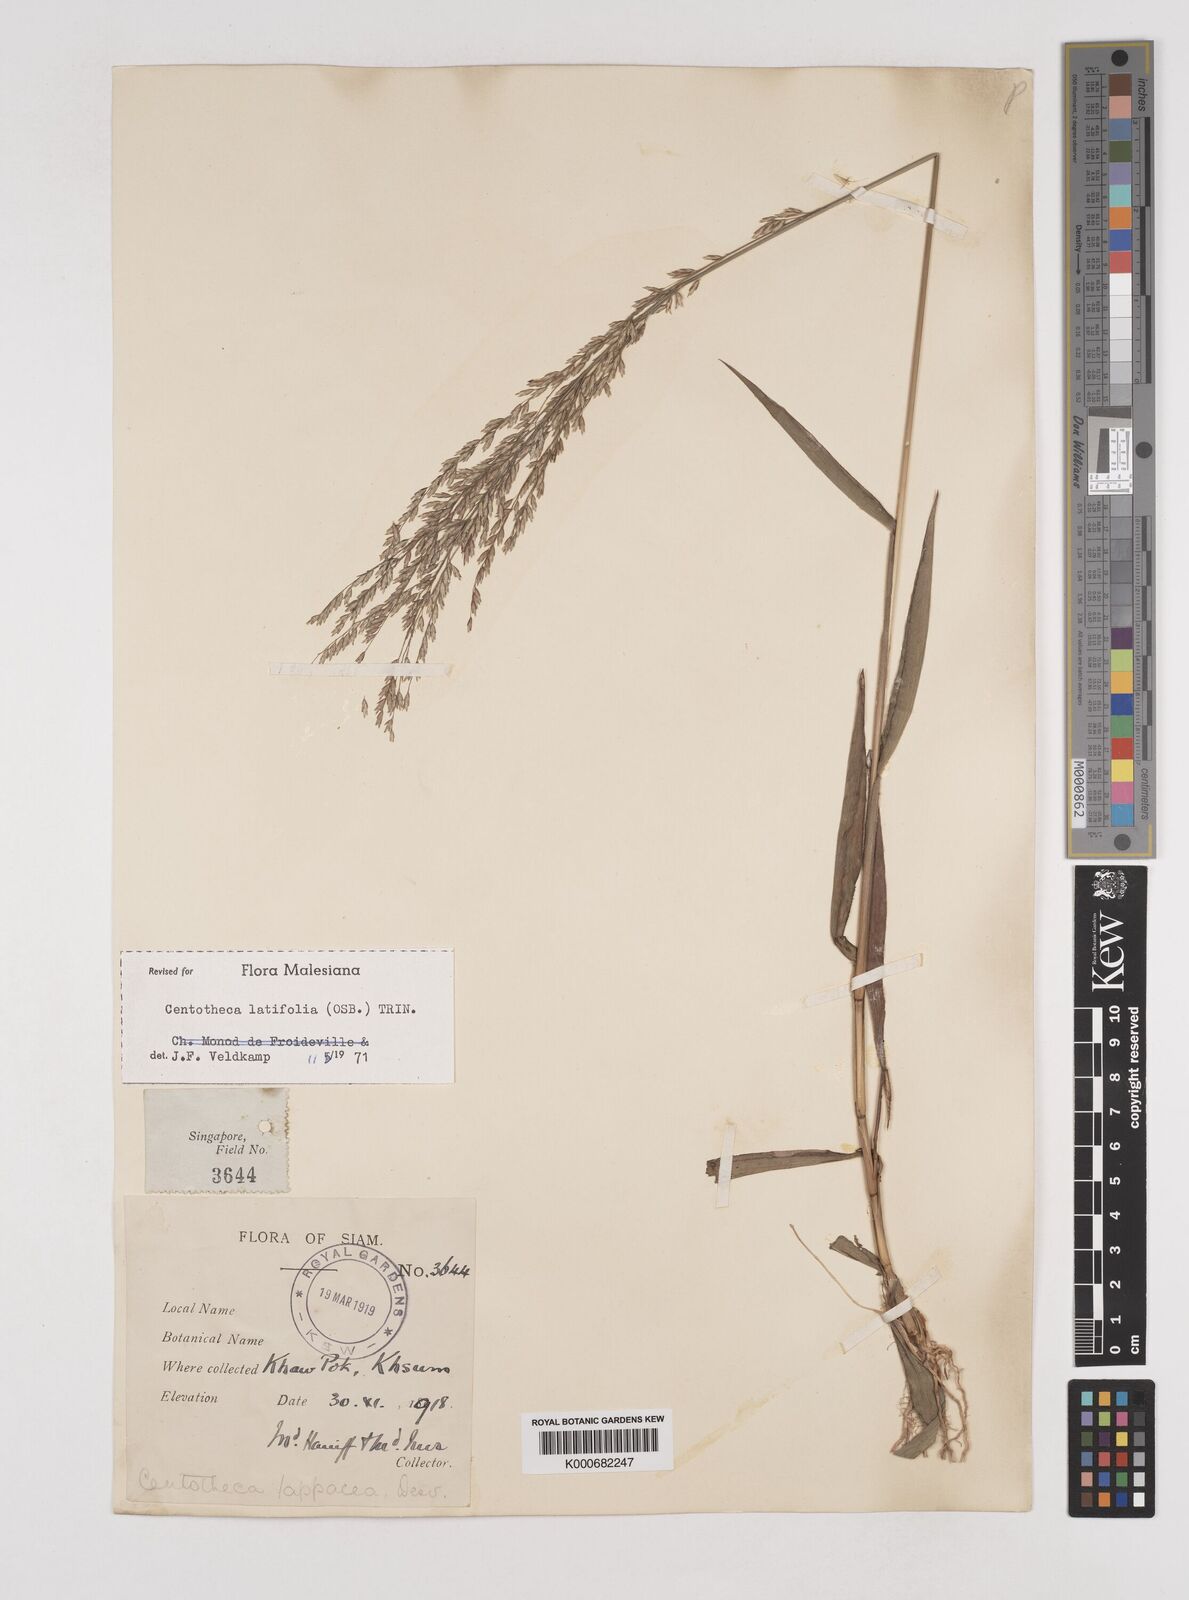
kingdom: Plantae
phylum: Tracheophyta
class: Liliopsida
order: Poales
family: Poaceae
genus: Centotheca
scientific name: Centotheca lappacea
